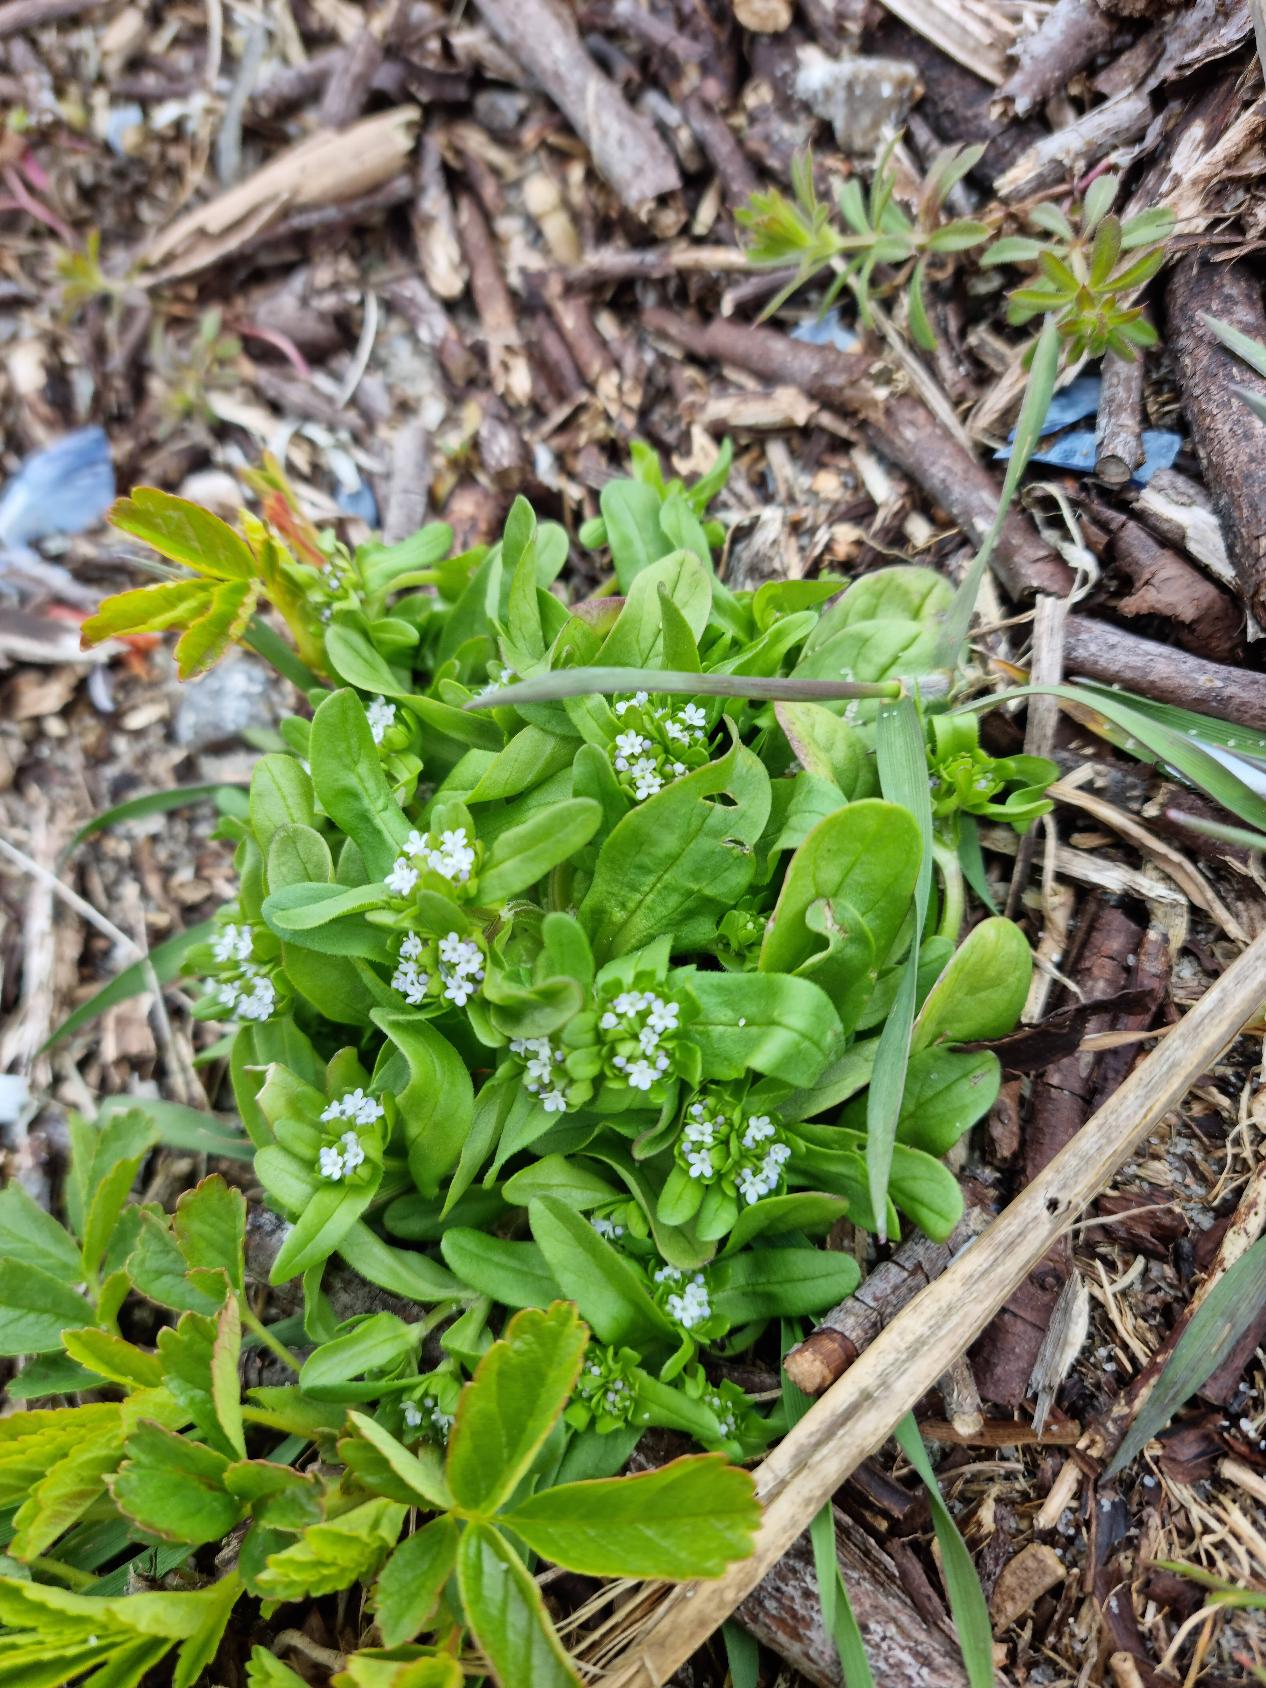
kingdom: Plantae
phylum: Tracheophyta
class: Magnoliopsida
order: Dipsacales
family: Caprifoliaceae
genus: Valerianella
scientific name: Valerianella locusta
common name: Tandfri vårsalat
